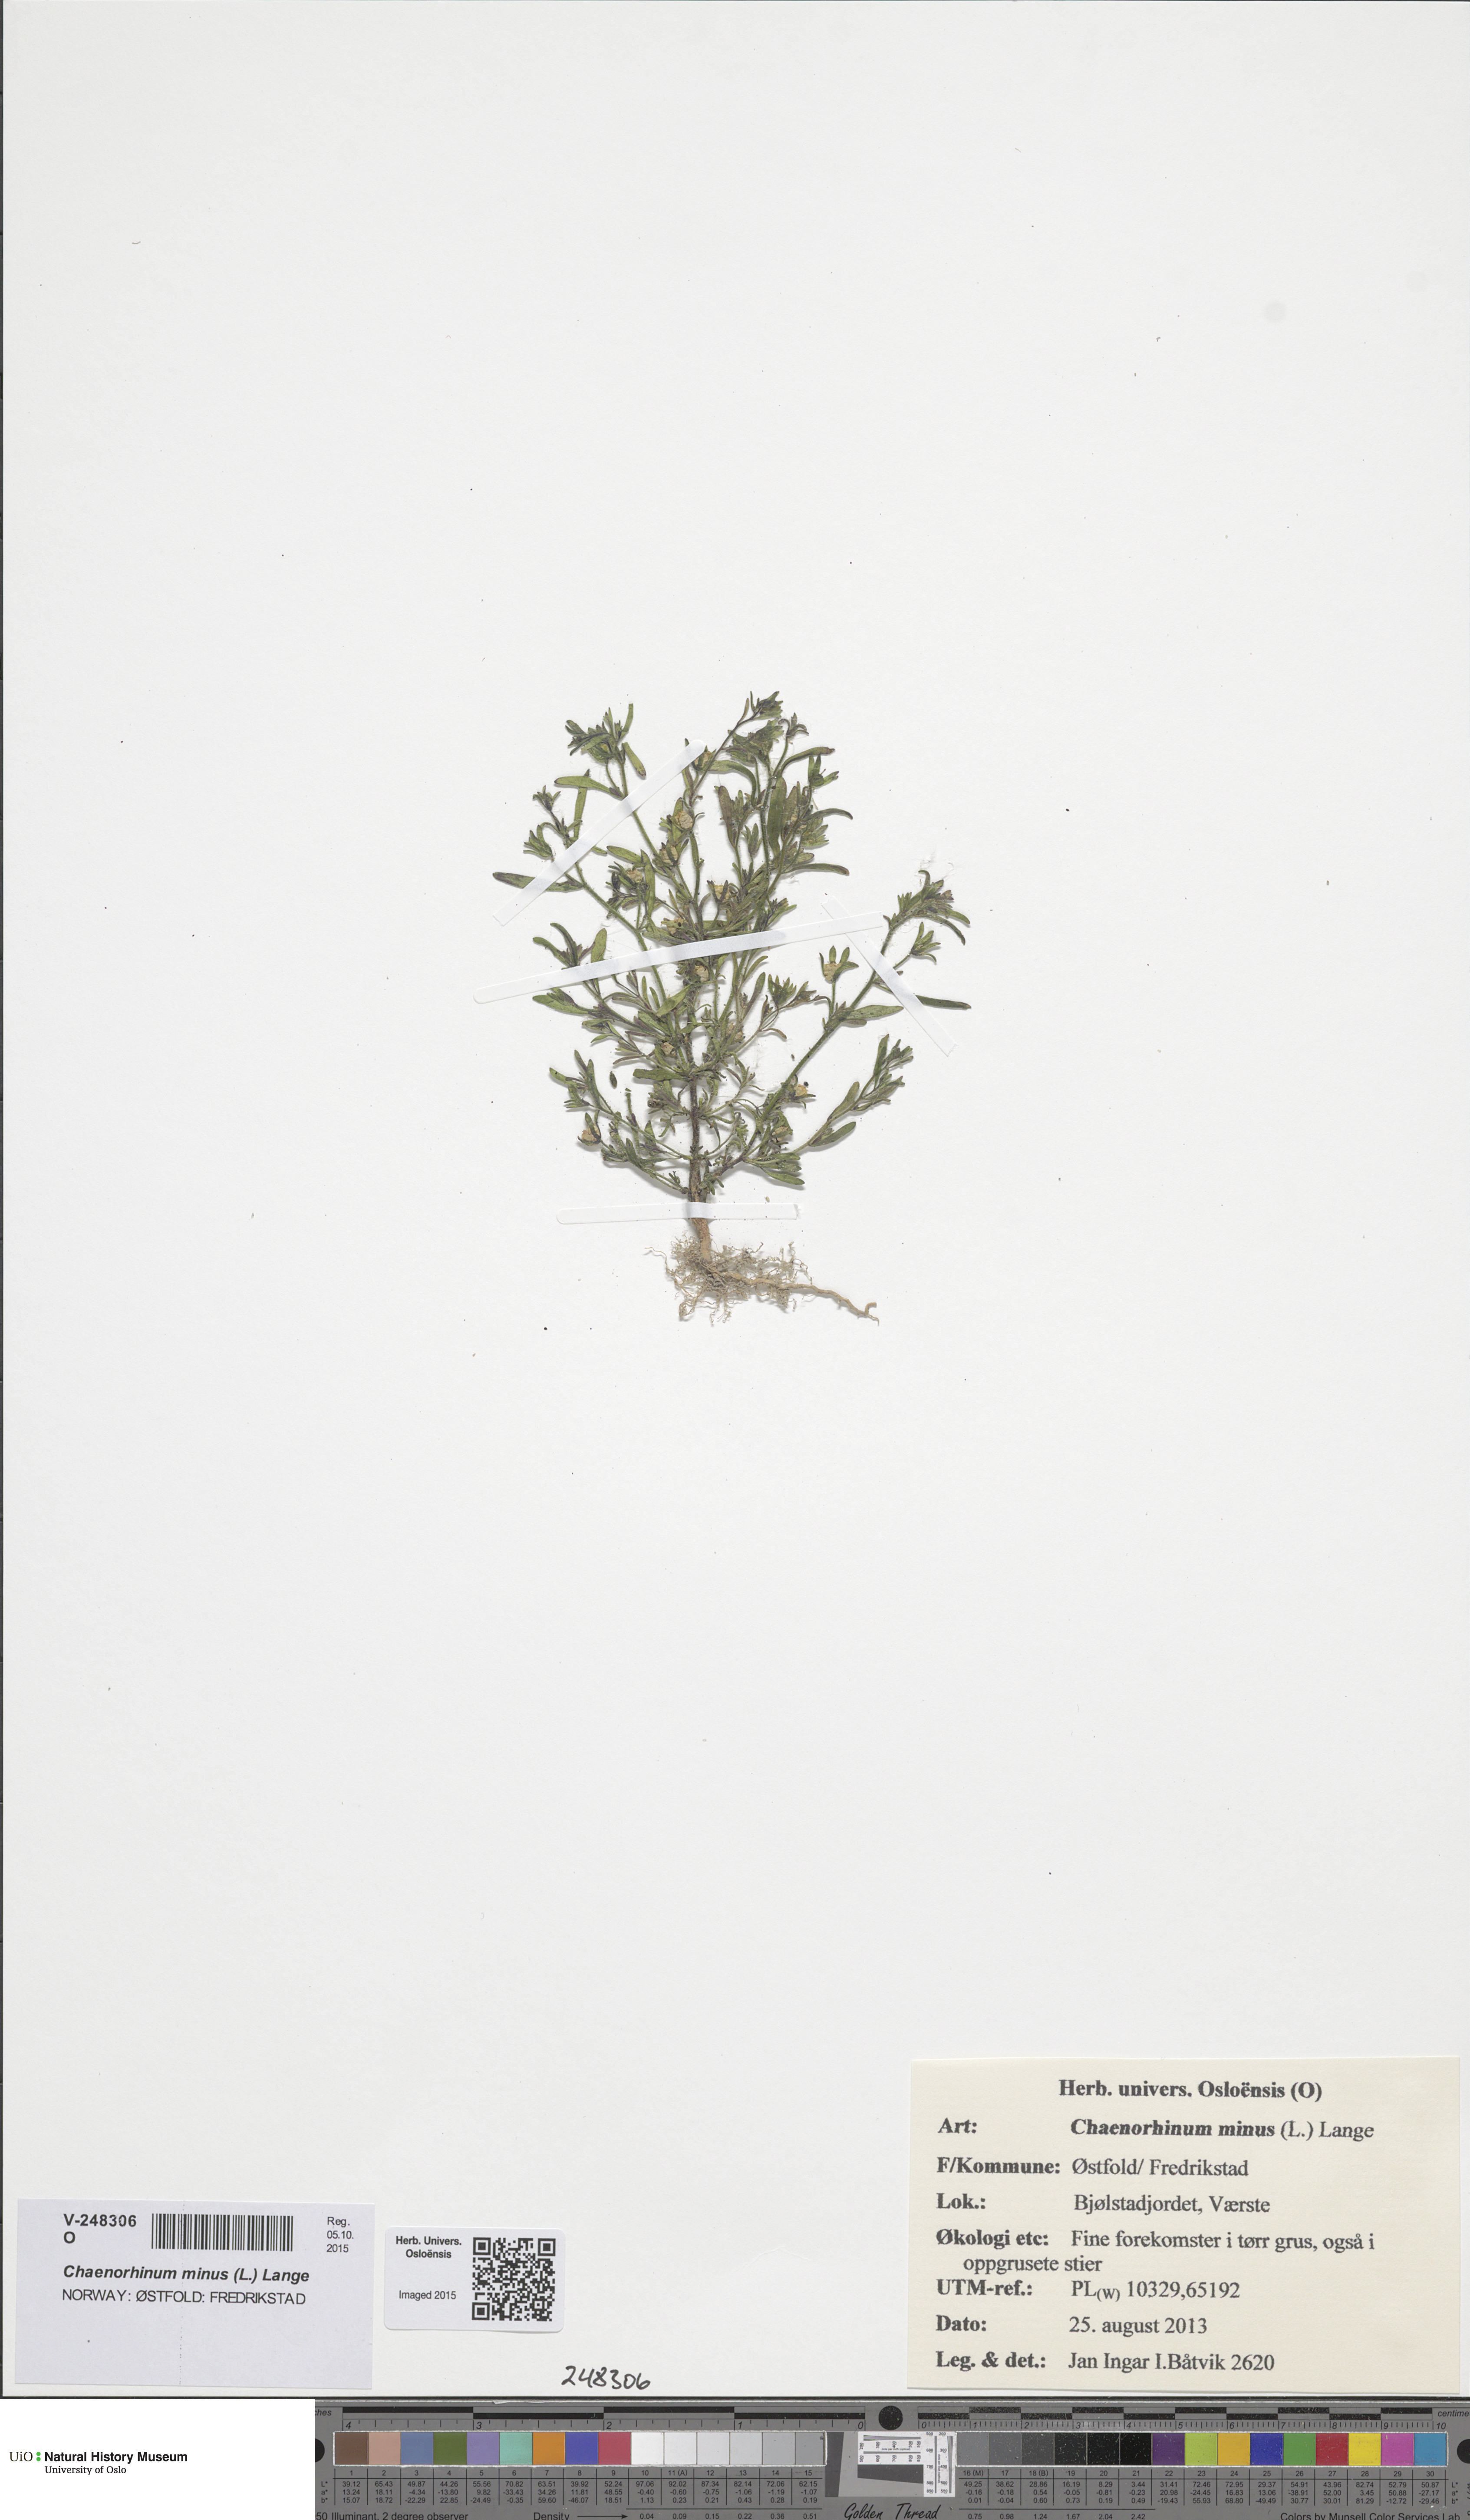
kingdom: Plantae
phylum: Tracheophyta
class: Magnoliopsida
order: Lamiales
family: Plantaginaceae
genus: Chaenorhinum
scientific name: Chaenorhinum minus
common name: Dwarf snapdragon
